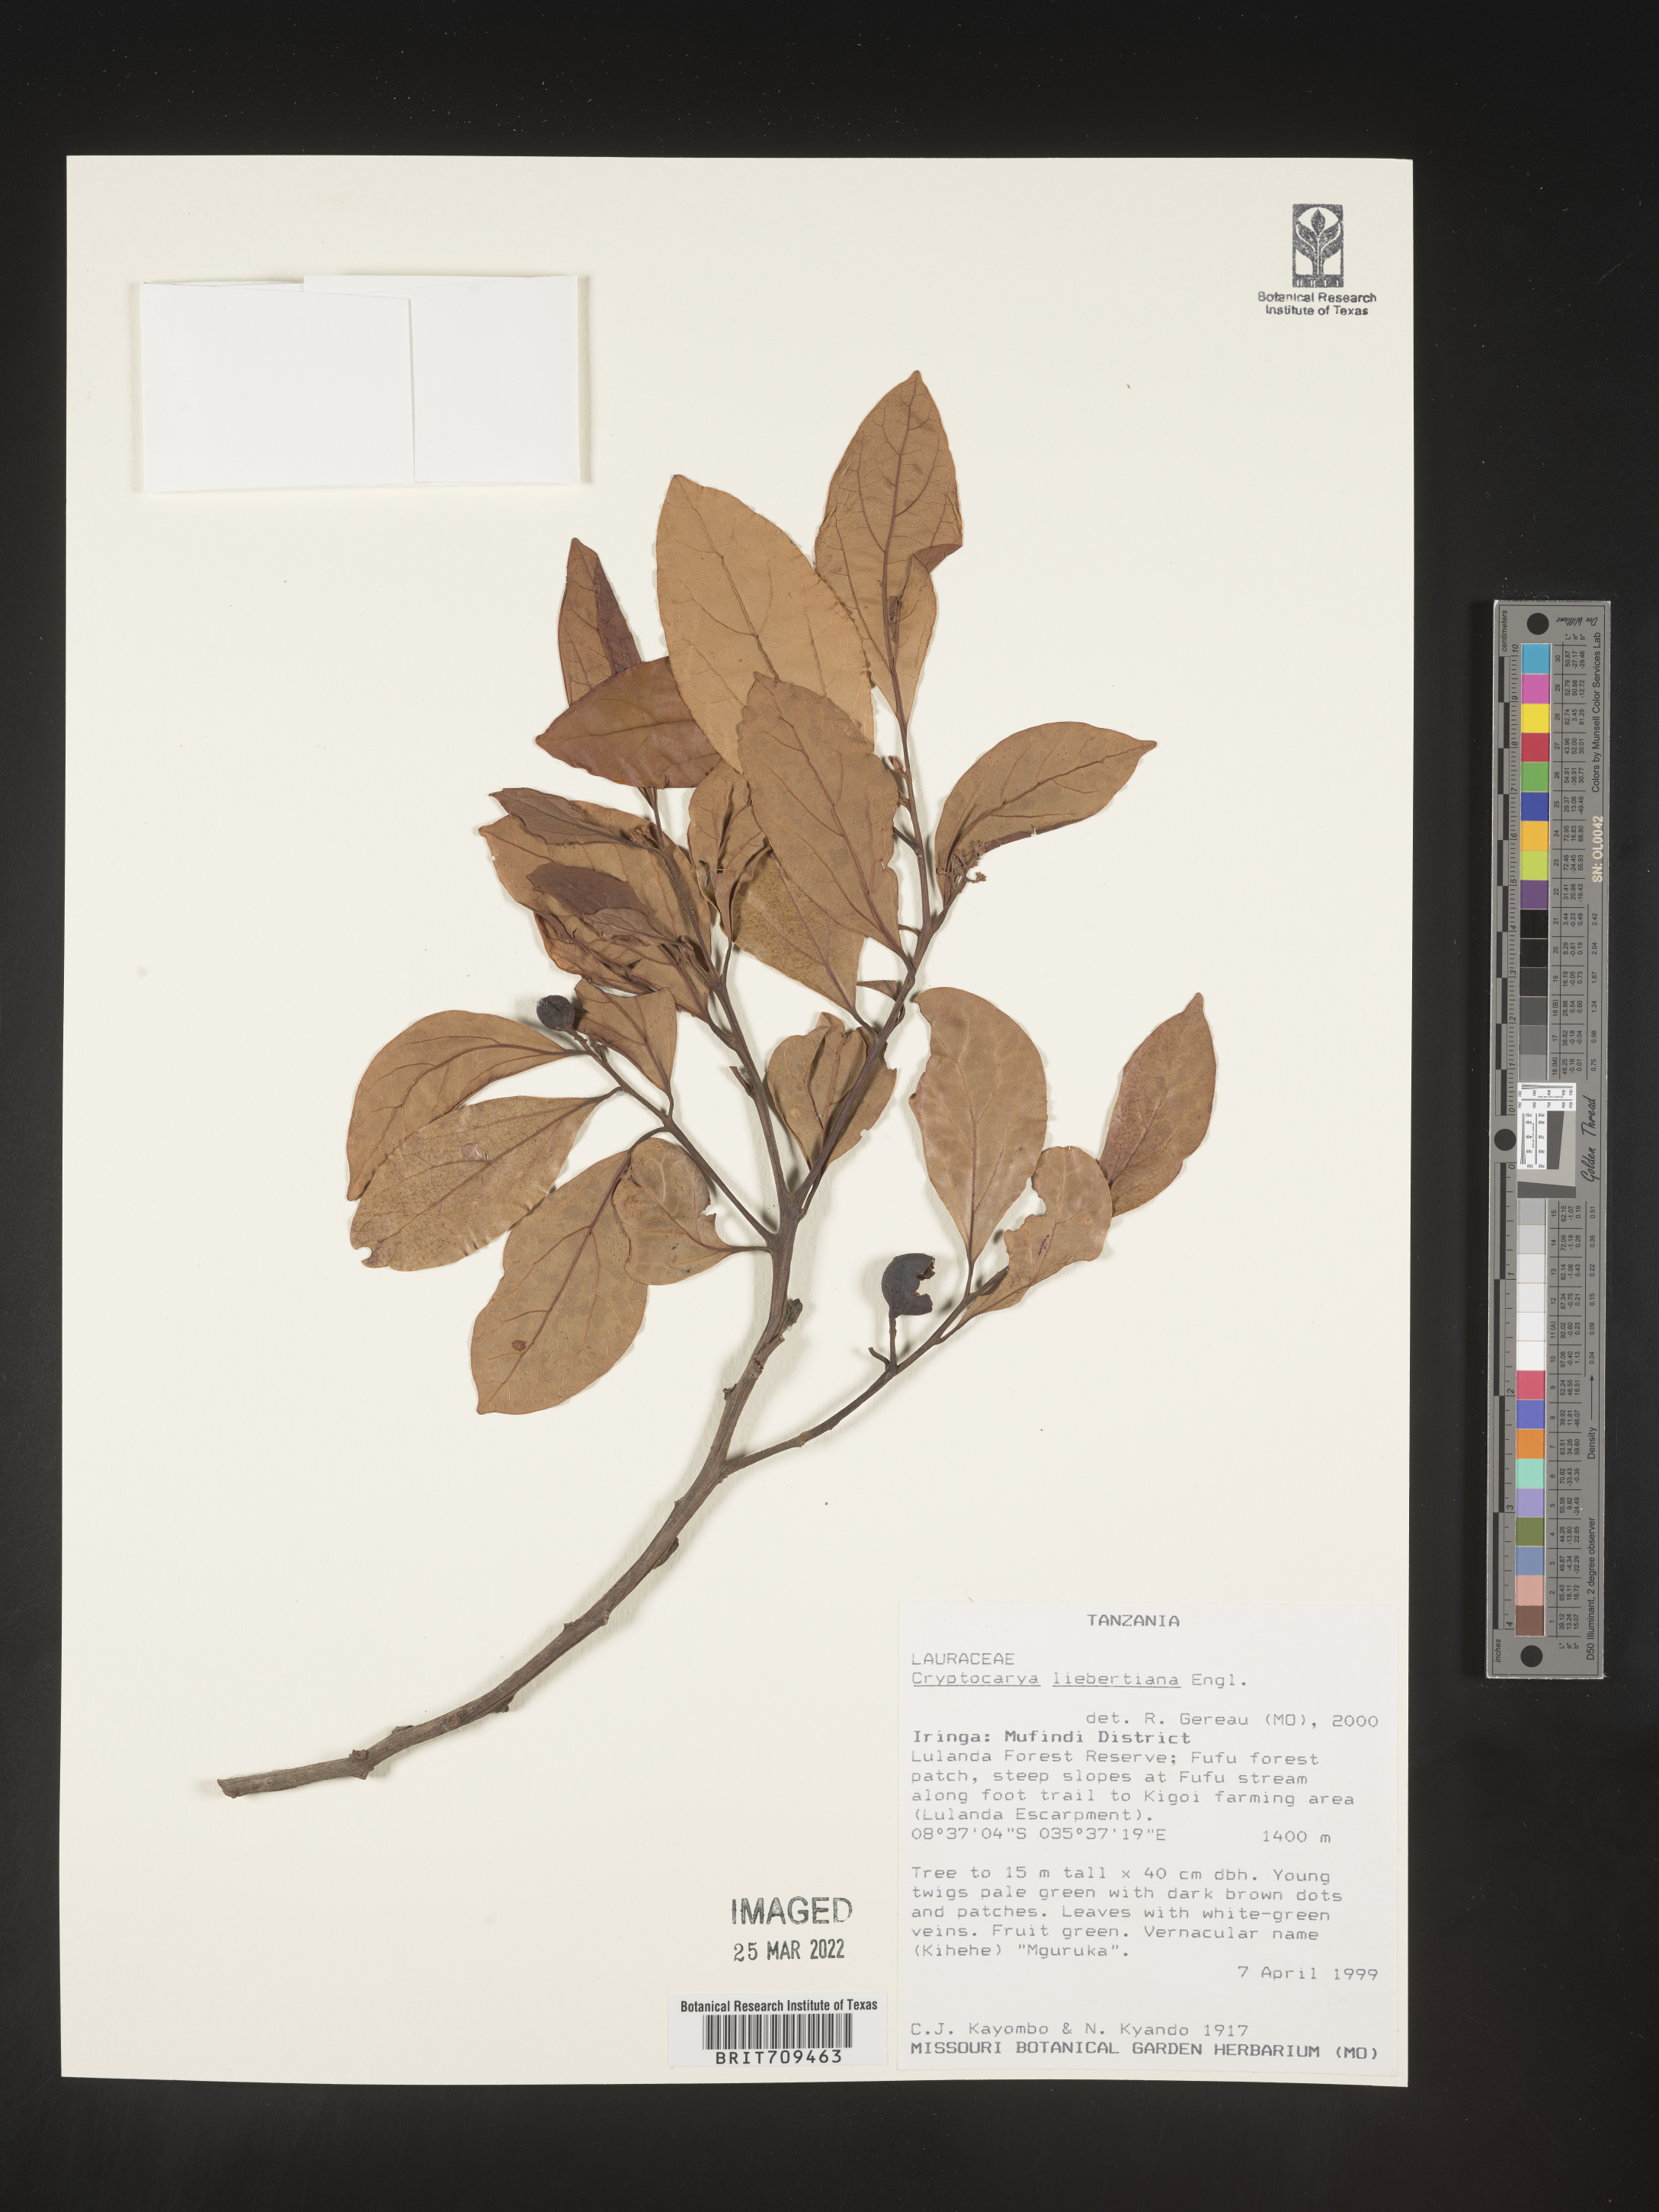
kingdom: Plantae
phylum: Tracheophyta
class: Magnoliopsida
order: Laurales
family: Lauraceae
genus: Cryptocarya
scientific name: Cryptocarya
